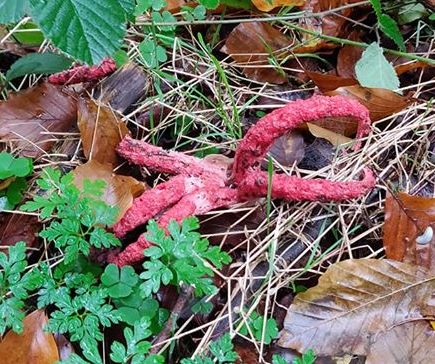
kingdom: Fungi
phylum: Basidiomycota
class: Agaricomycetes
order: Phallales
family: Phallaceae
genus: Clathrus
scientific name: Clathrus archeri
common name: blækspruttesvamp
